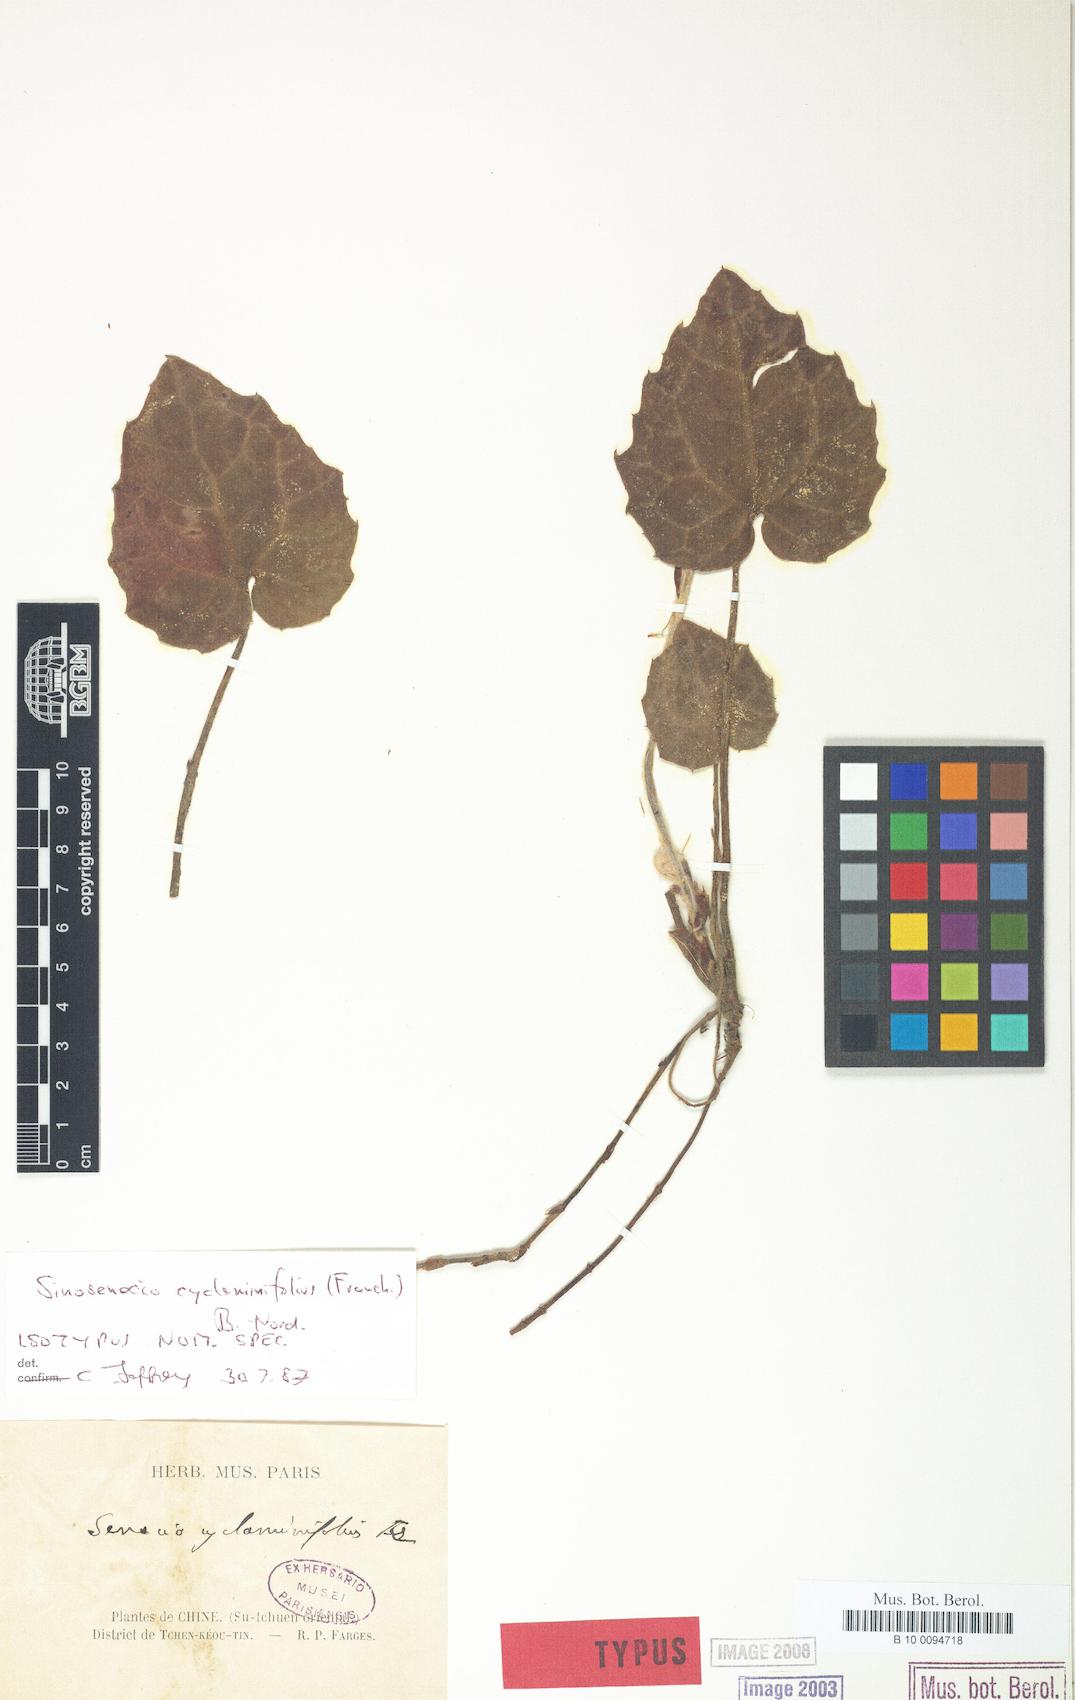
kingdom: Plantae
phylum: Tracheophyta
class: Magnoliopsida
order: Asterales
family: Asteraceae
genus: Sinosenecio
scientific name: Sinosenecio cyclaminifolius
